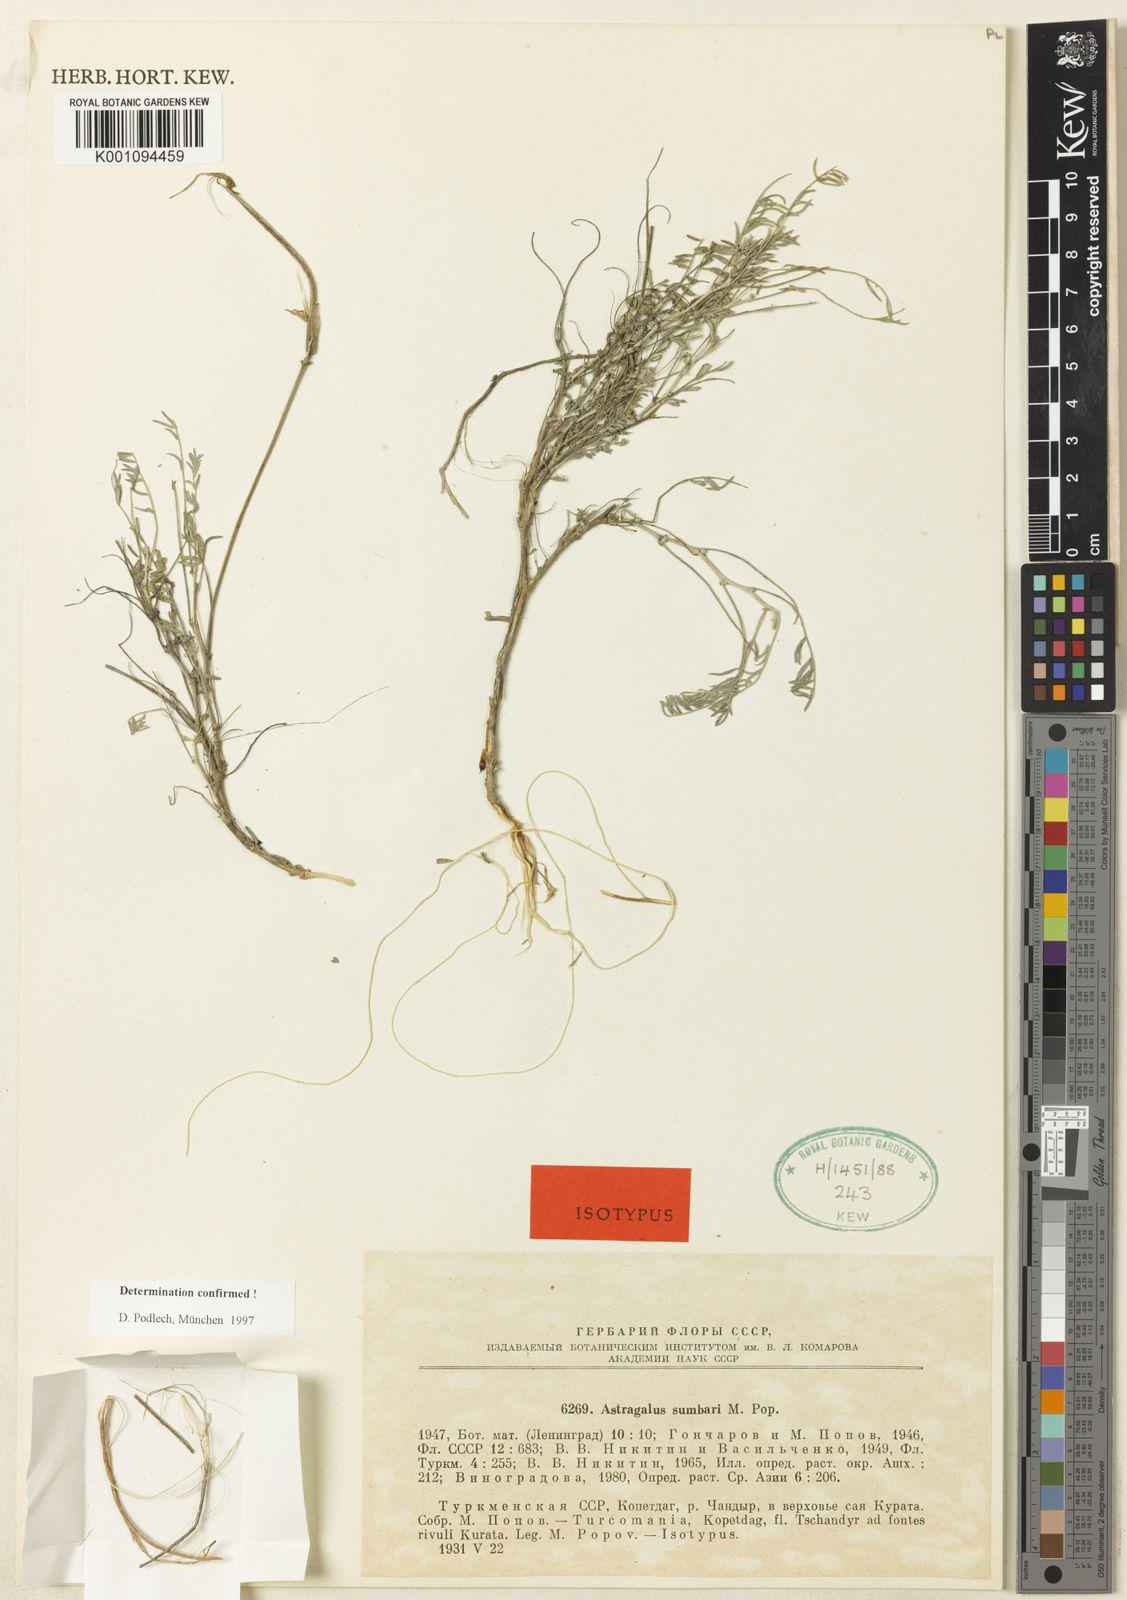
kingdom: Plantae
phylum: Tracheophyta
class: Magnoliopsida
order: Fabales
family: Fabaceae
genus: Astragalus
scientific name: Astragalus
